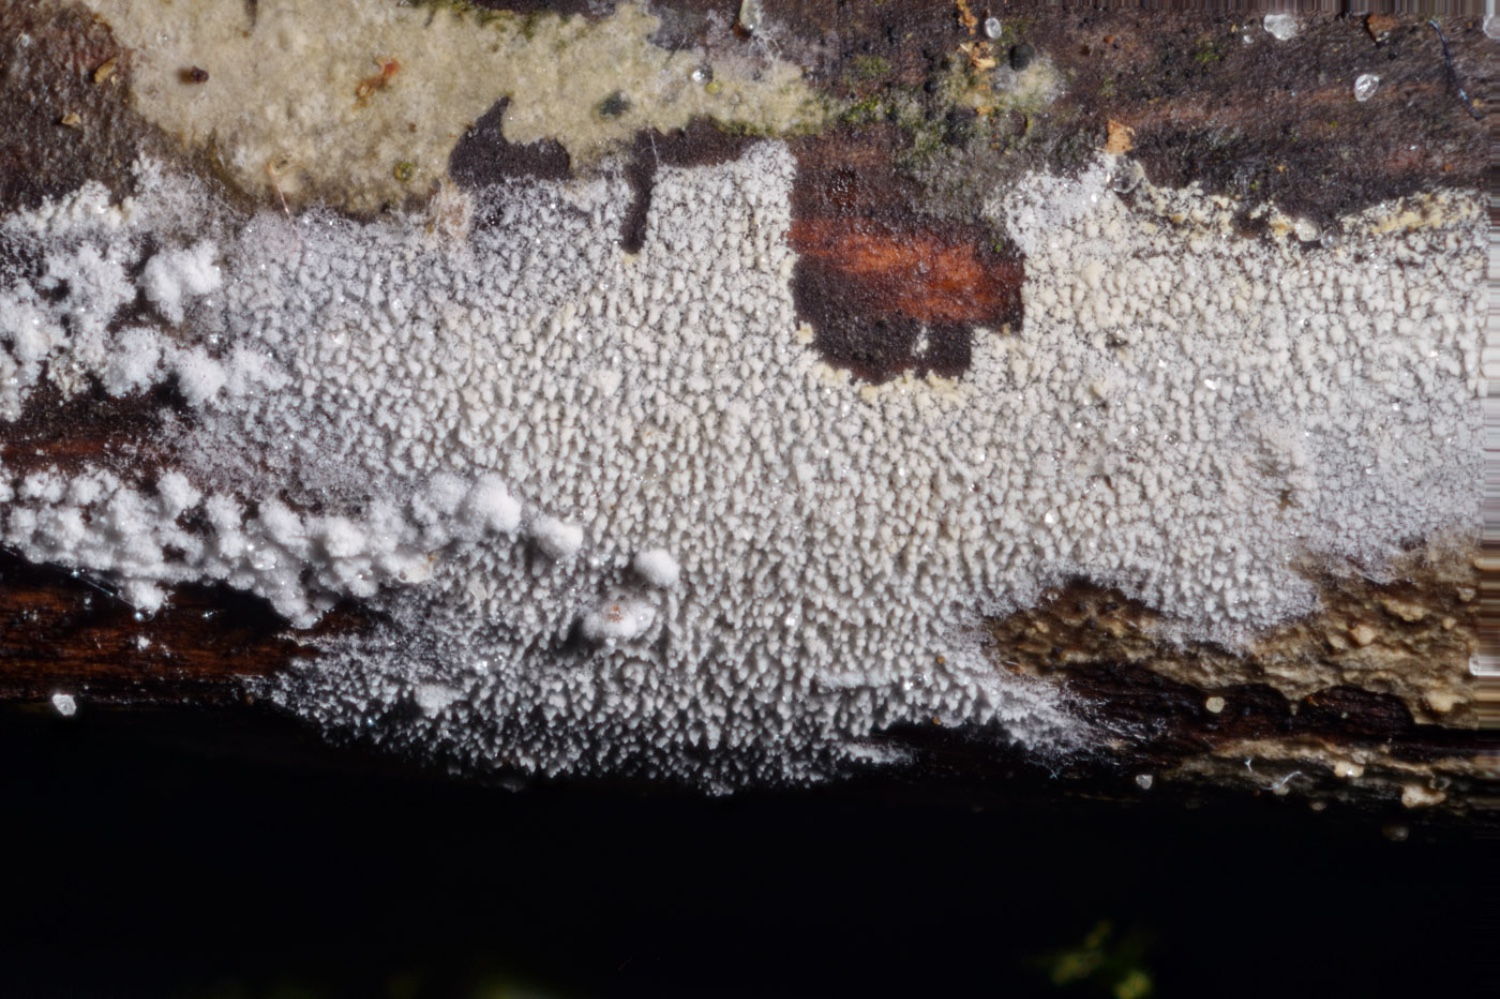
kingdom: Fungi
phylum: Basidiomycota
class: Agaricomycetes
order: Trechisporales
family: Sistotremataceae
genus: Trechispora
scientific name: Trechispora stevensonii
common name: støvende vathinde
